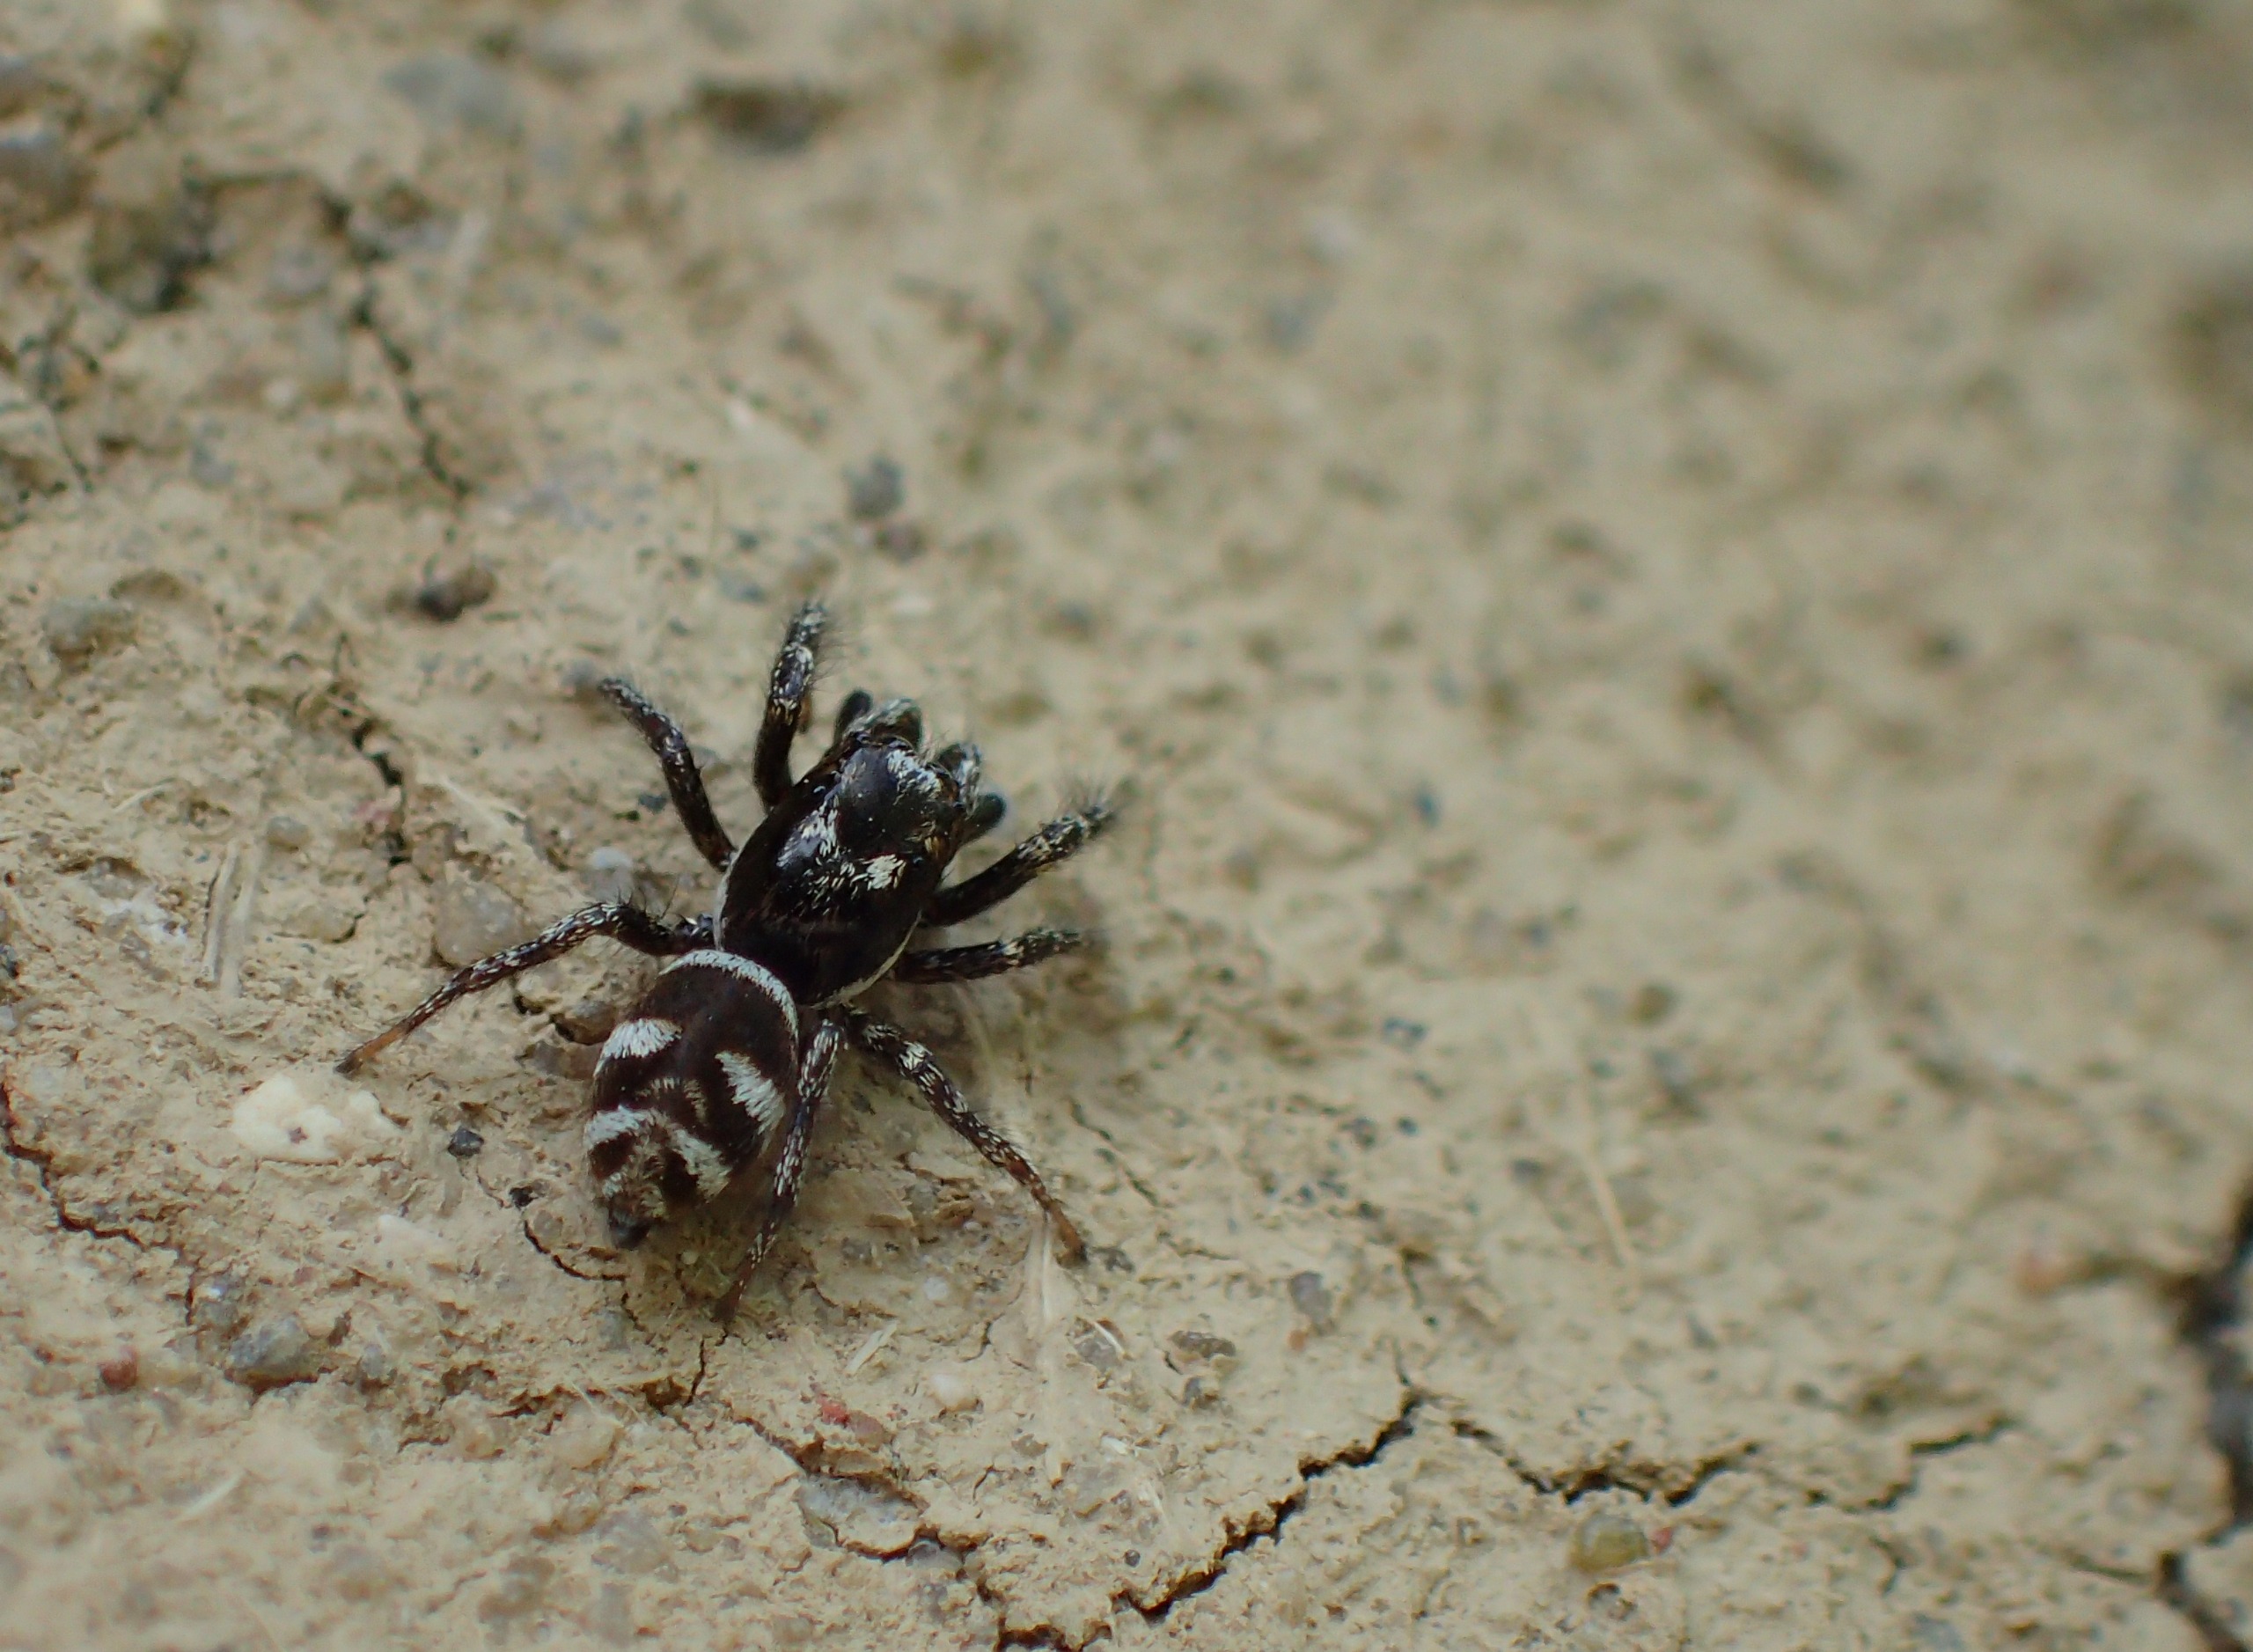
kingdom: Animalia
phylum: Arthropoda
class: Arachnida
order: Araneae
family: Salticidae
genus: Salticus
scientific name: Salticus scenicus
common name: Almindelig zebraedderkop
